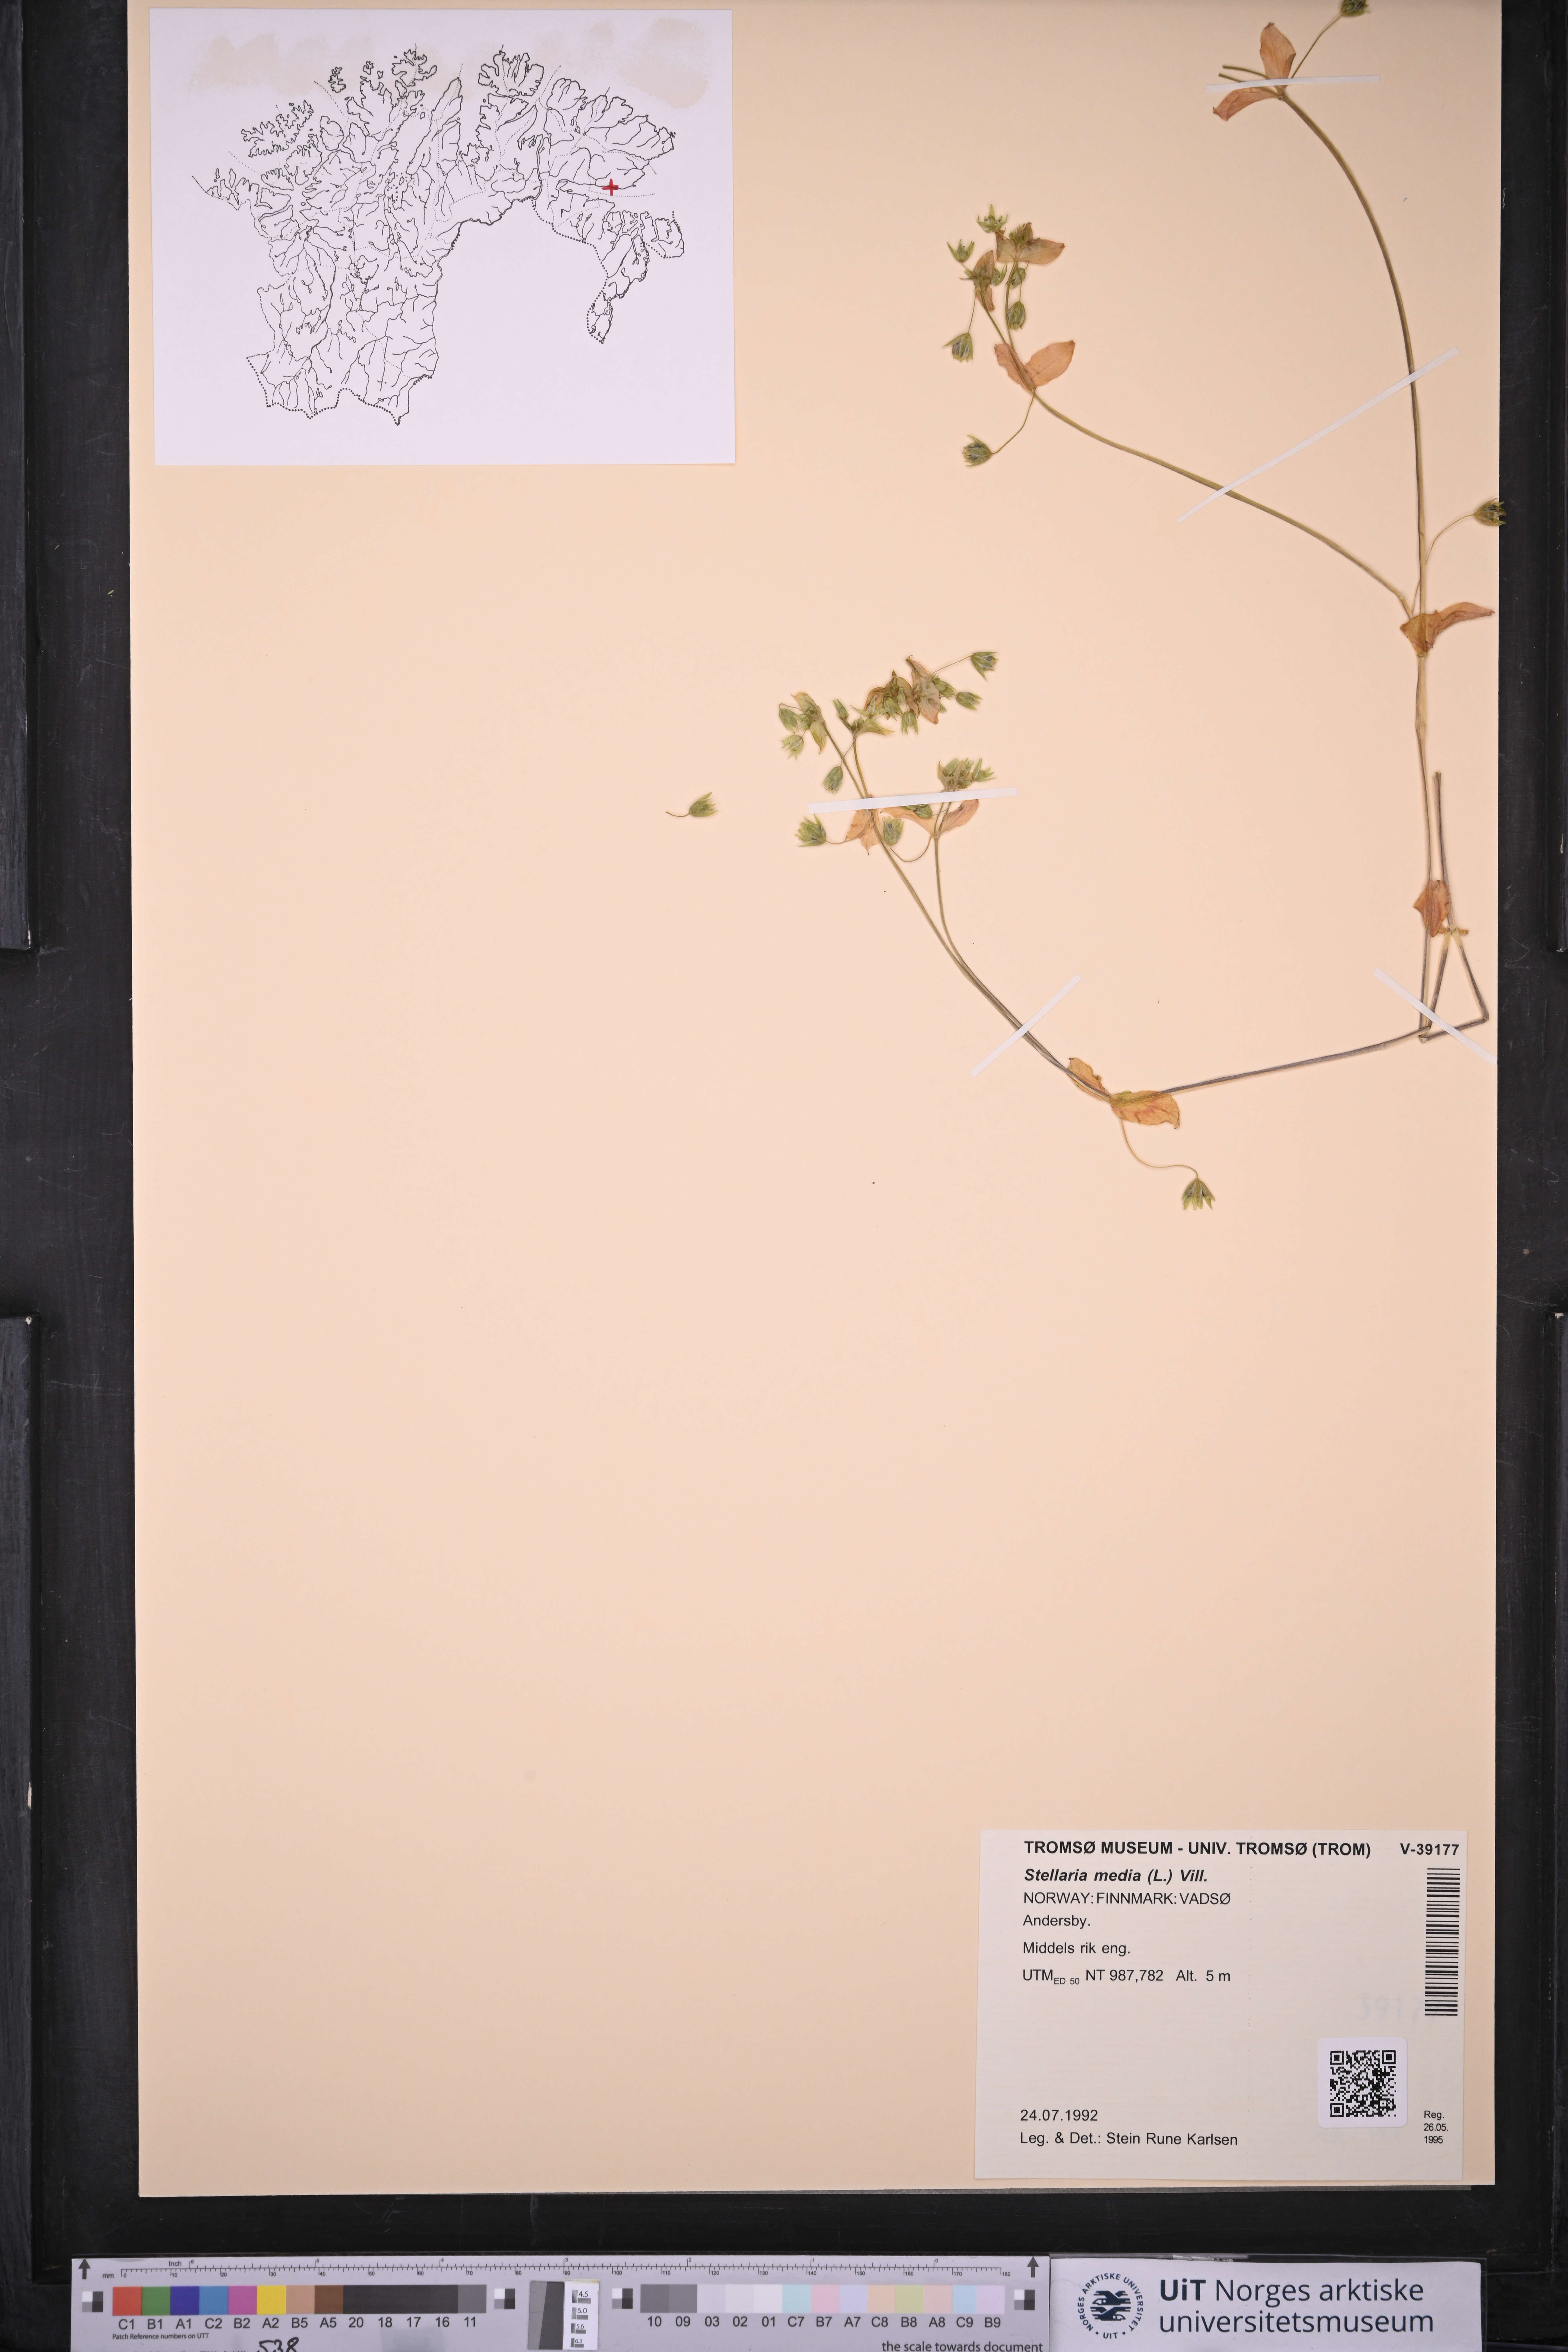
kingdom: Plantae
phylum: Tracheophyta
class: Magnoliopsida
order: Caryophyllales
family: Caryophyllaceae
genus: Stellaria
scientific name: Stellaria media
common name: Common chickweed
